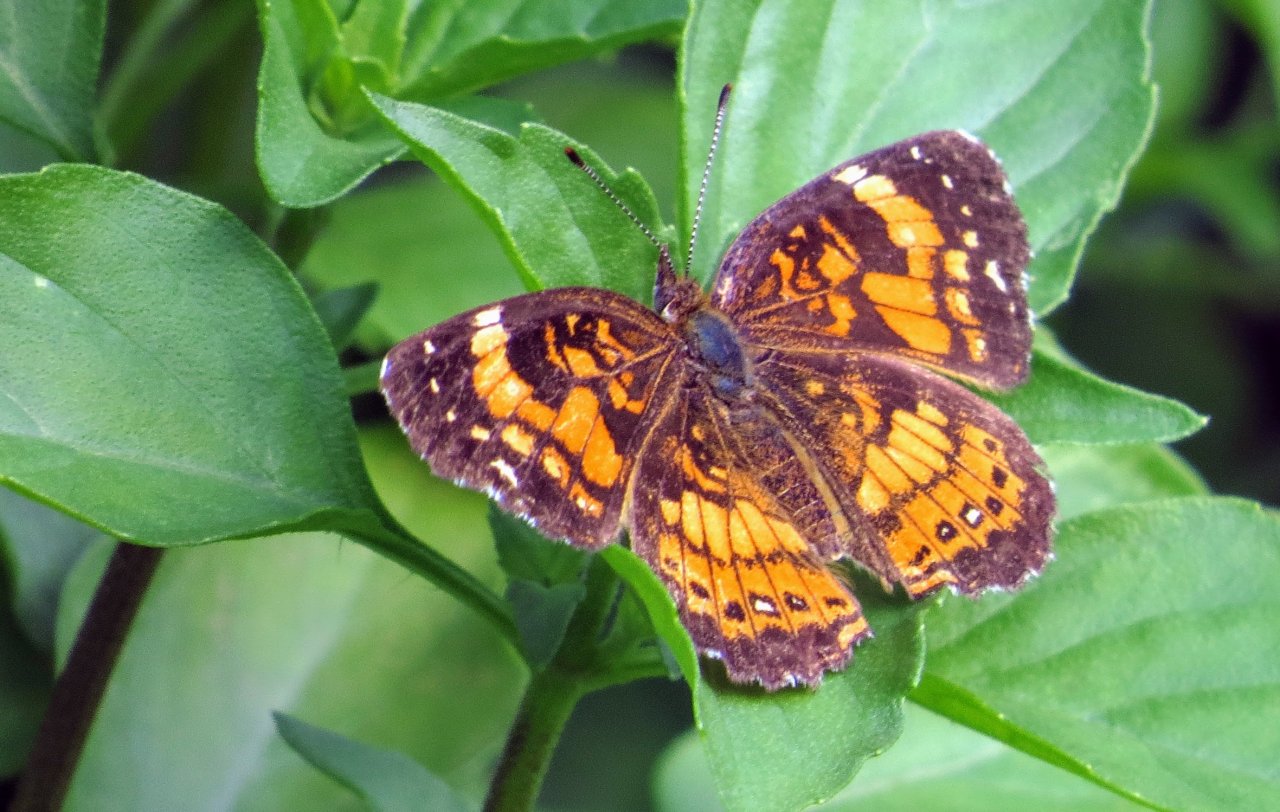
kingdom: Animalia
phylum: Arthropoda
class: Insecta
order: Lepidoptera
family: Nymphalidae
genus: Chlosyne
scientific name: Chlosyne nycteis
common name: Silvery Checkerspot
